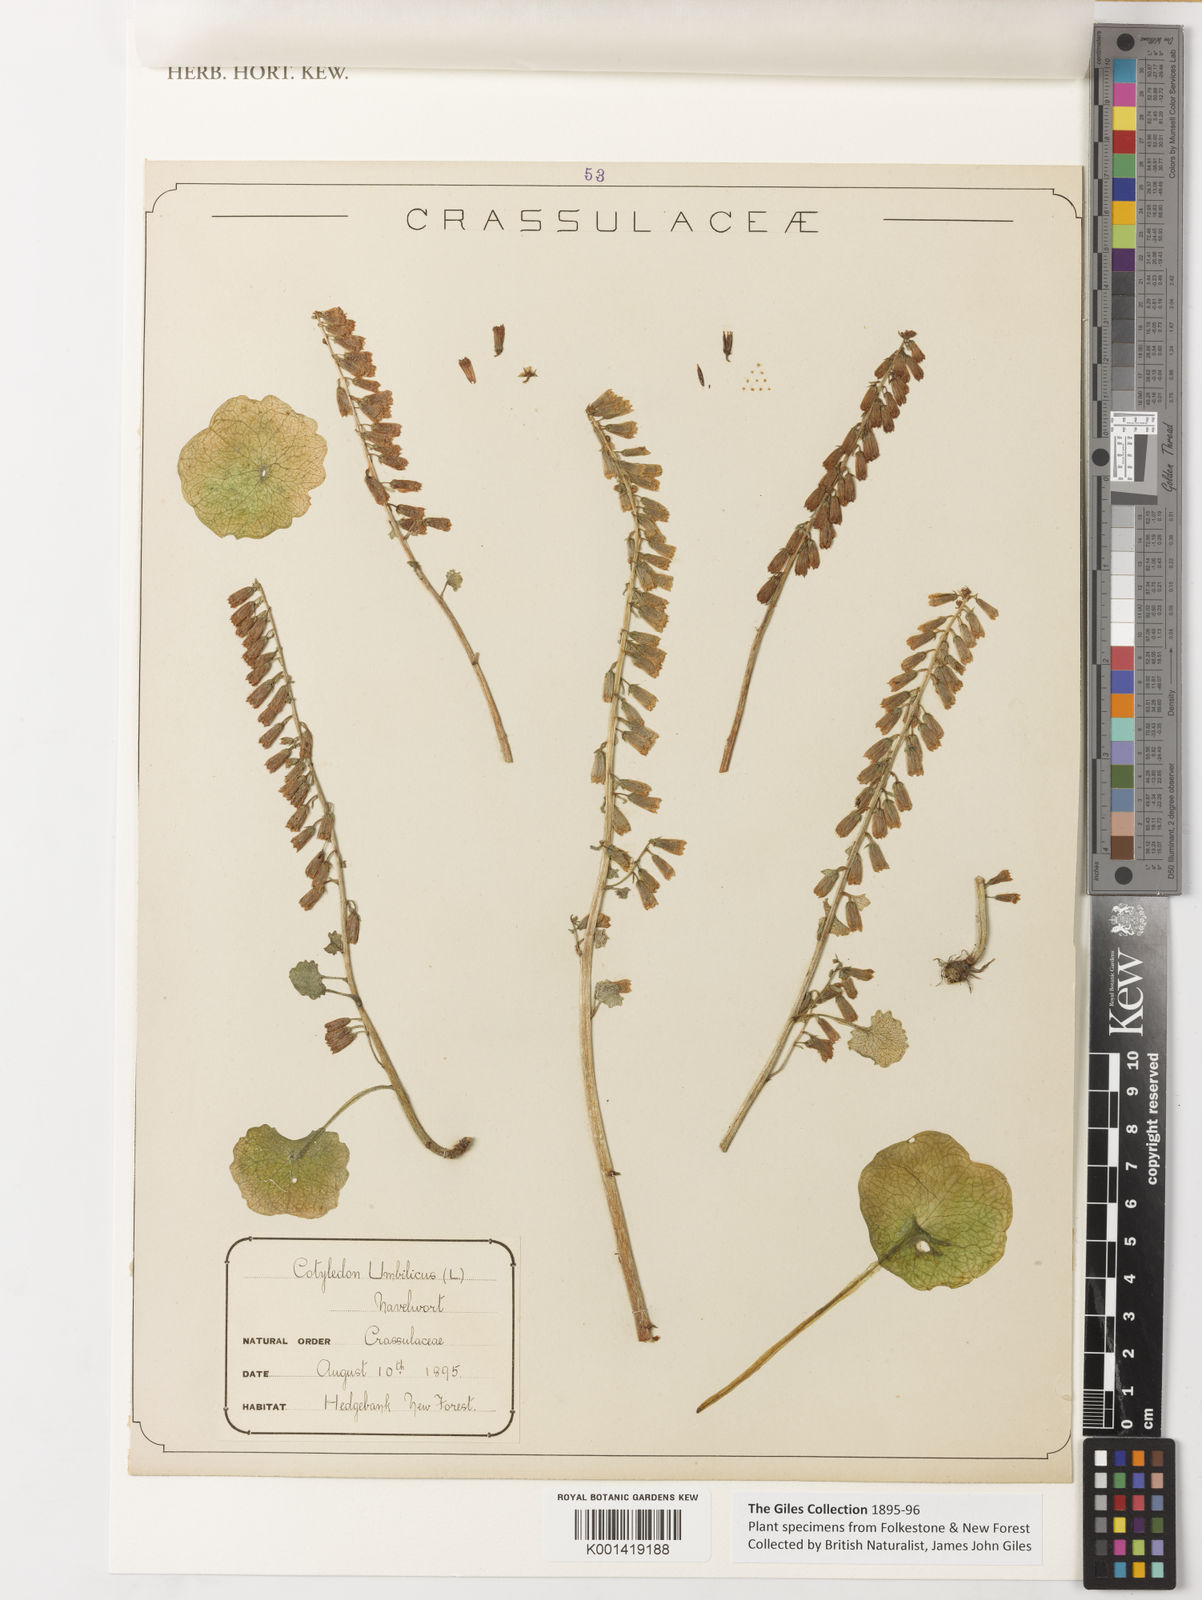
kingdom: Plantae
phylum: Tracheophyta
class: Magnoliopsida
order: Saxifragales
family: Crassulaceae
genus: Umbilicus
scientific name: Umbilicus rupestris
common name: Navelwort
